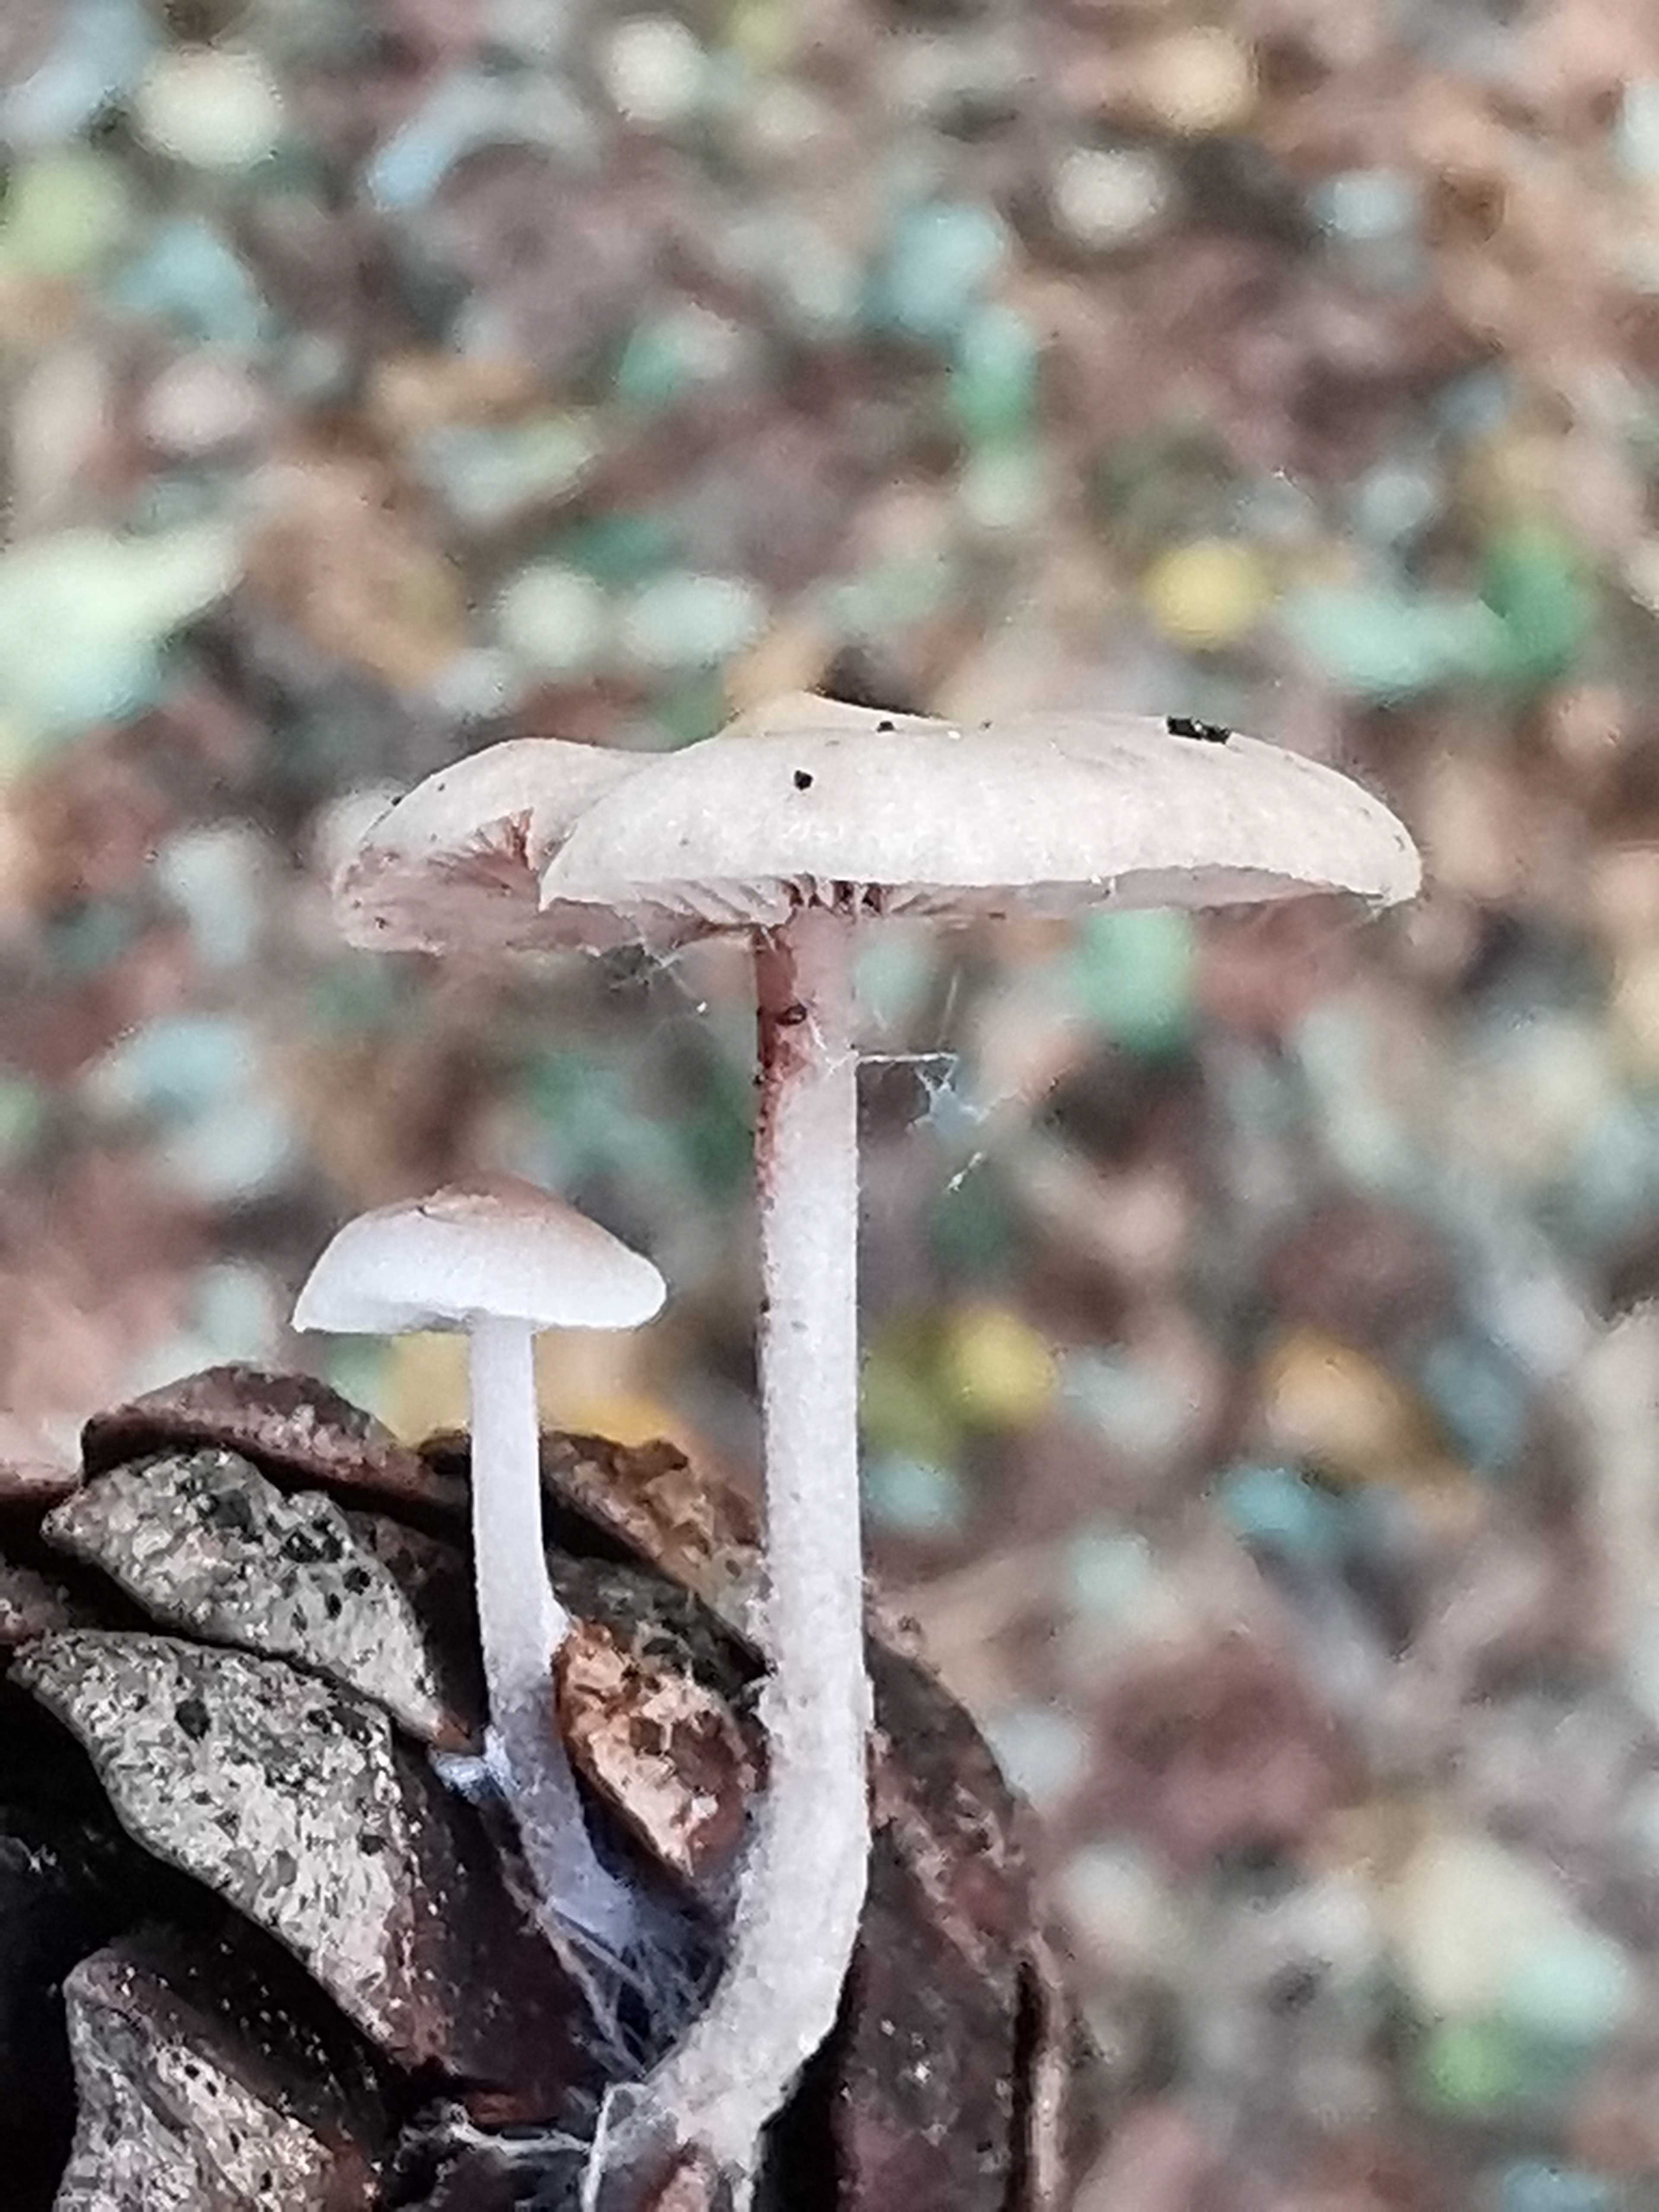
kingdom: Fungi
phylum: Basidiomycota
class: Agaricomycetes
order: Agaricales
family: Marasmiaceae
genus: Baeospora
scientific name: Baeospora myosura
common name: koglebruskhat
